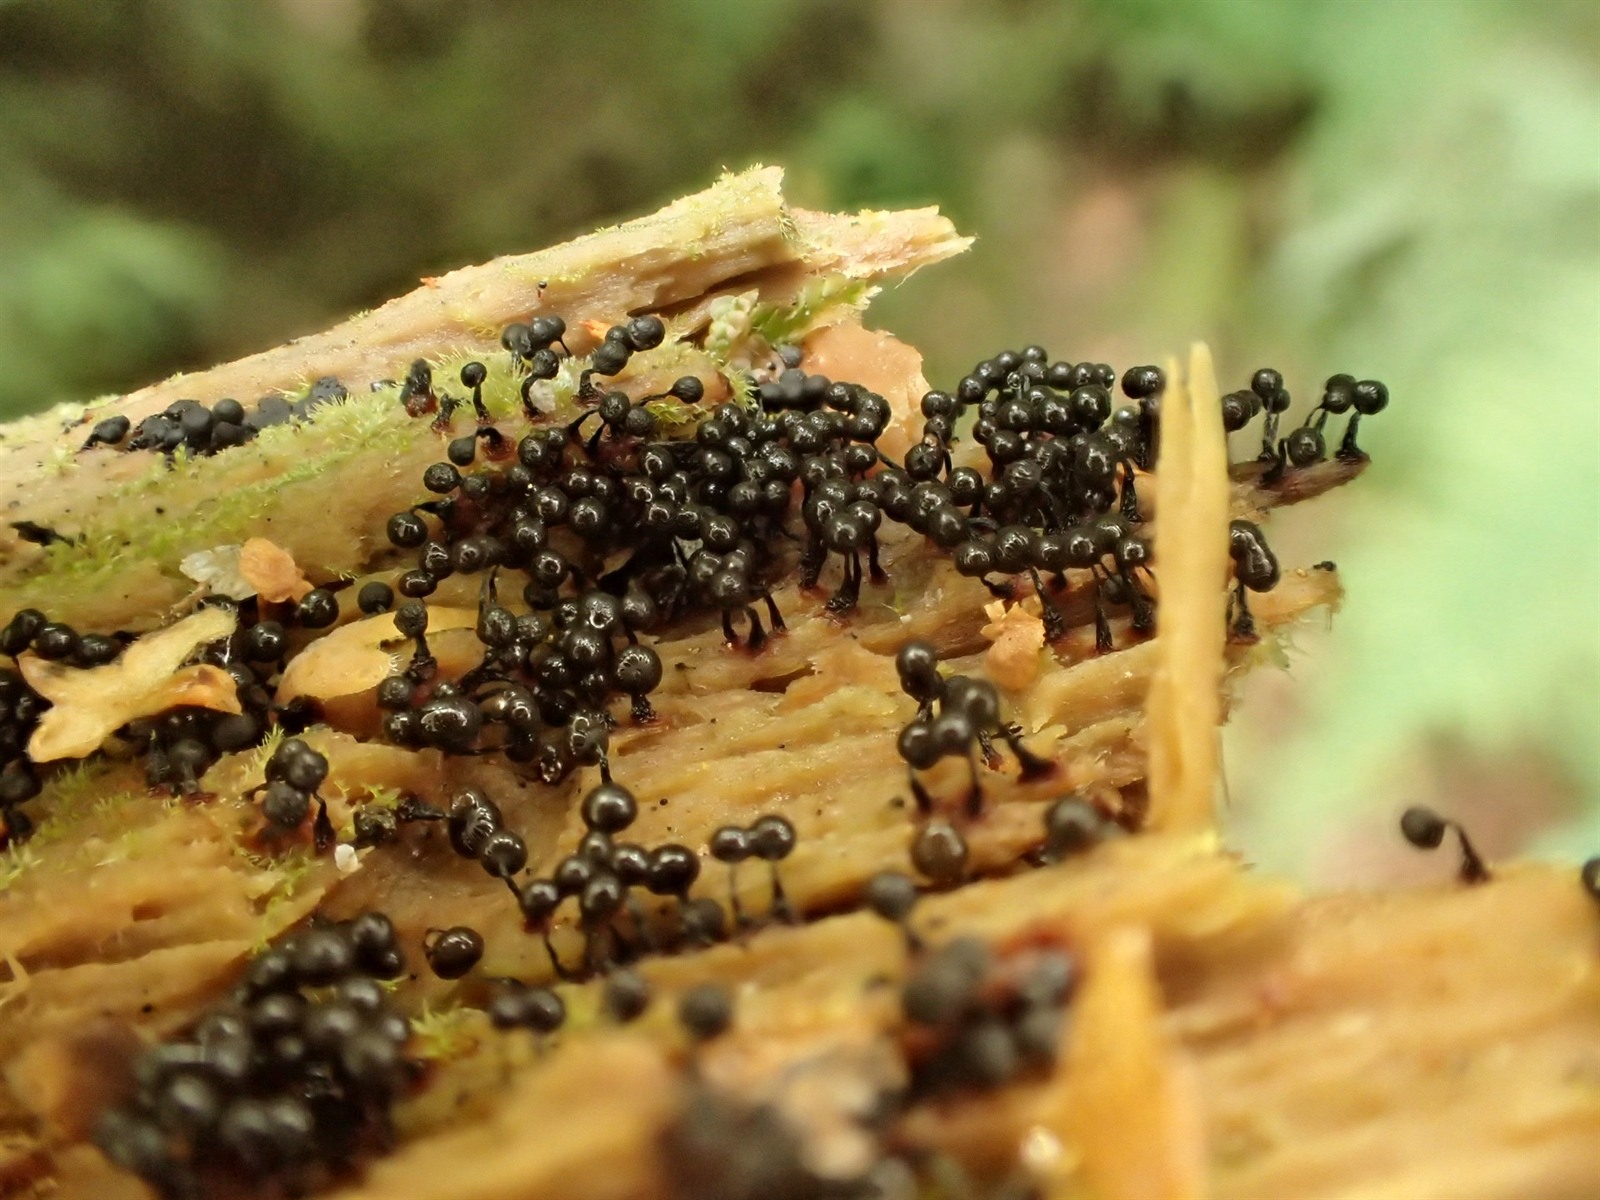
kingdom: Protozoa
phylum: Mycetozoa
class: Myxomycetes
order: Cribrariales
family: Cribrariaceae
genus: Cribraria
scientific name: Cribraria mirabilis
